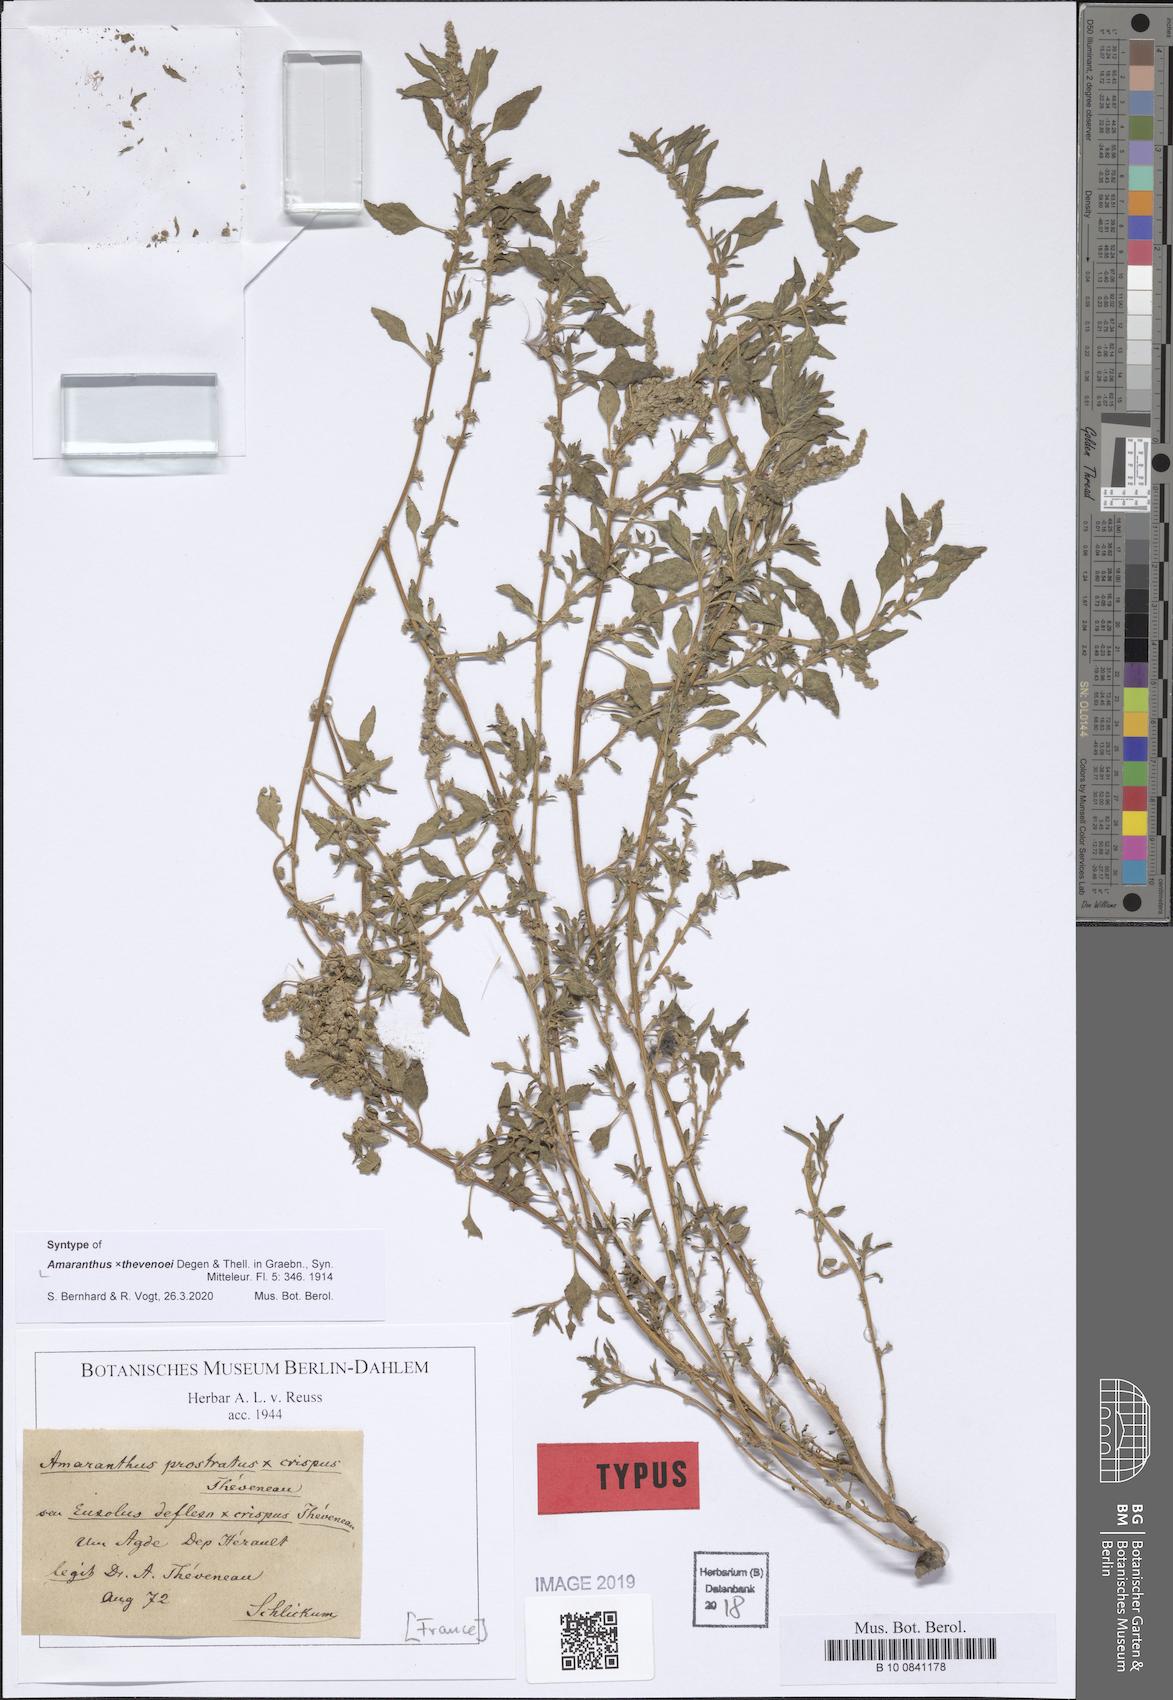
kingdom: Plantae
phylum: Tracheophyta
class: Magnoliopsida
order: Caryophyllales
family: Amaranthaceae
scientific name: Amaranthaceae
